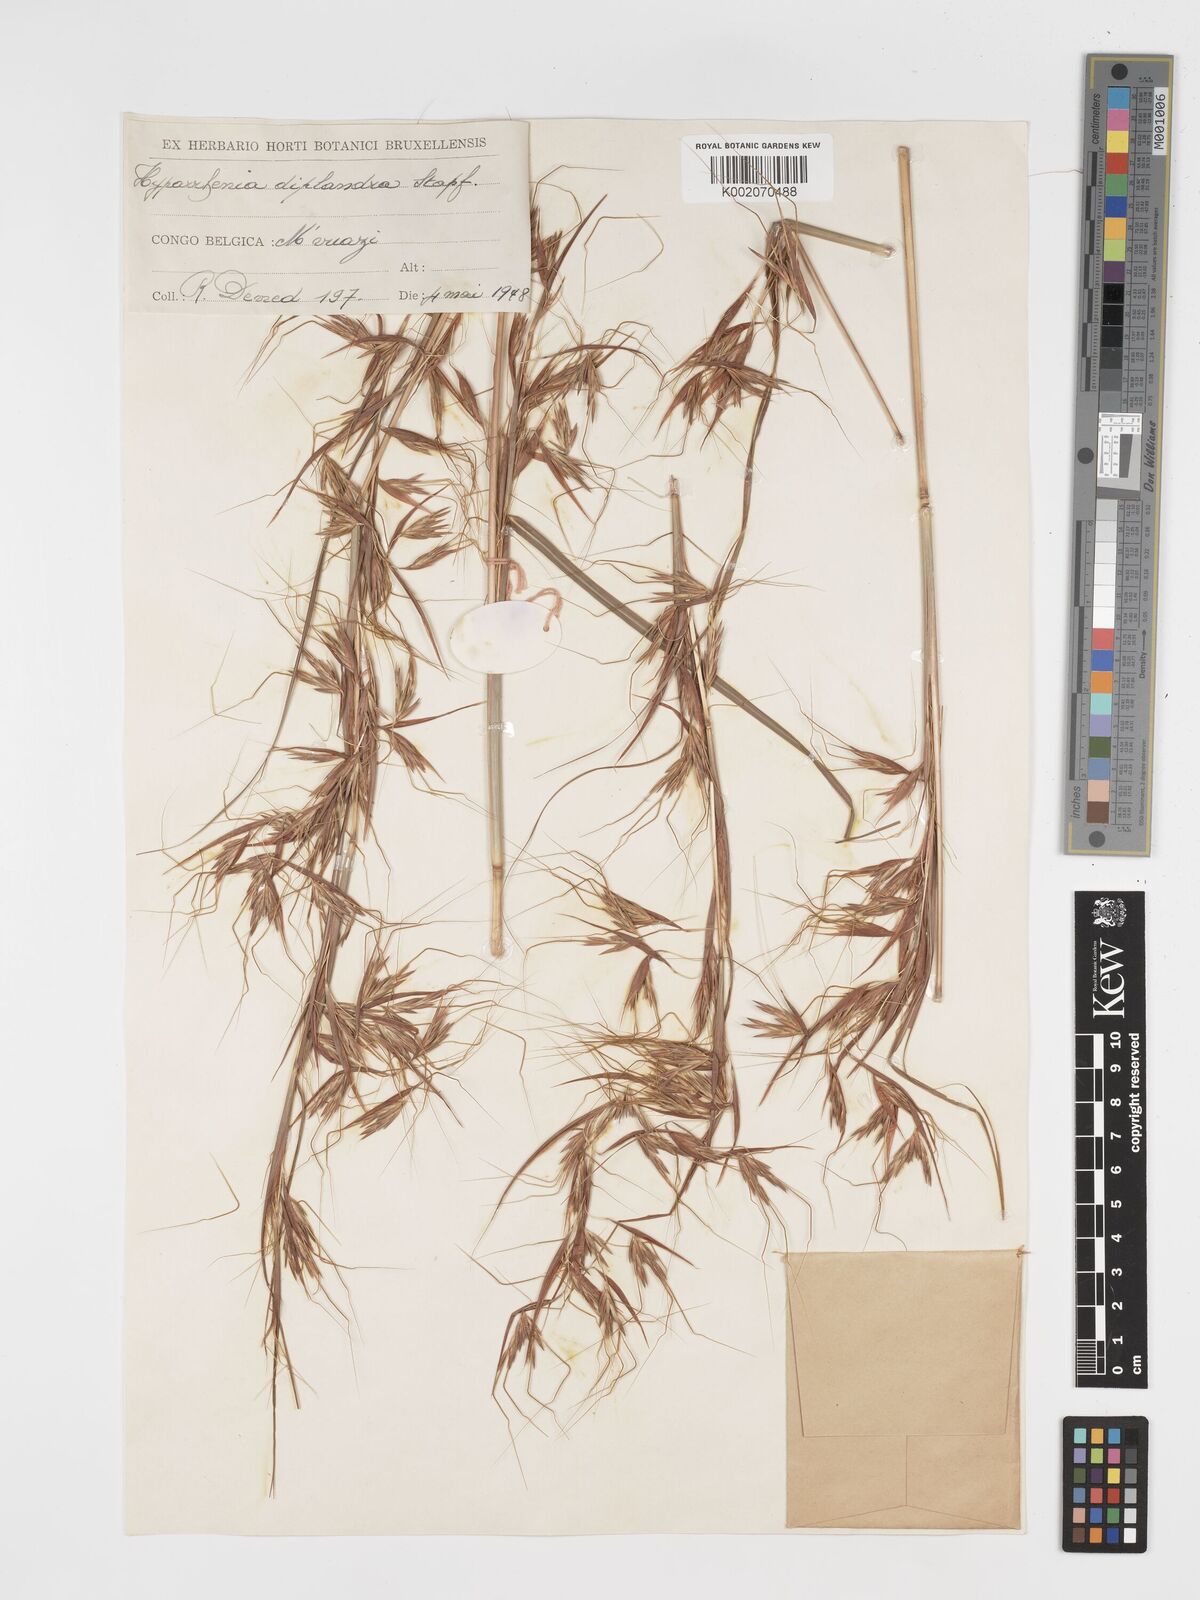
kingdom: Plantae
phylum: Tracheophyta
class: Liliopsida
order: Poales
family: Poaceae
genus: Hyparrhenia
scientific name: Hyparrhenia diplandra
